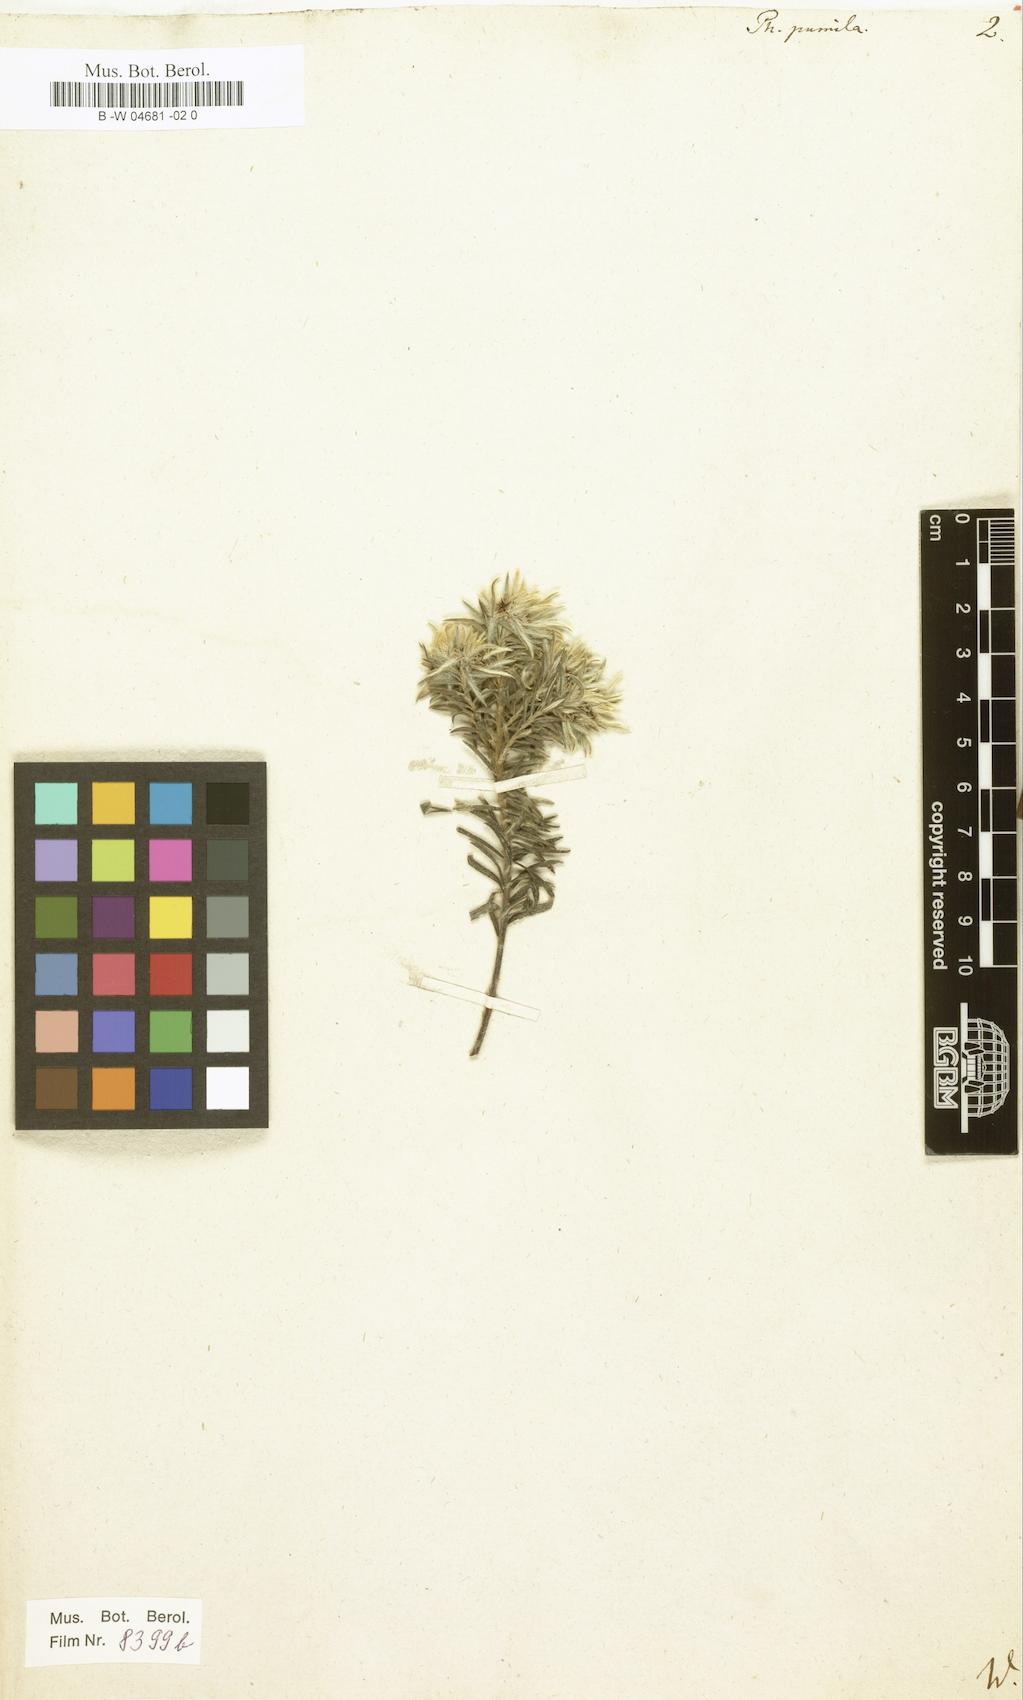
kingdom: Plantae
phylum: Tracheophyta
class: Magnoliopsida
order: Rosales
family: Rhamnaceae
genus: Phylica
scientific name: Phylica plumosa
